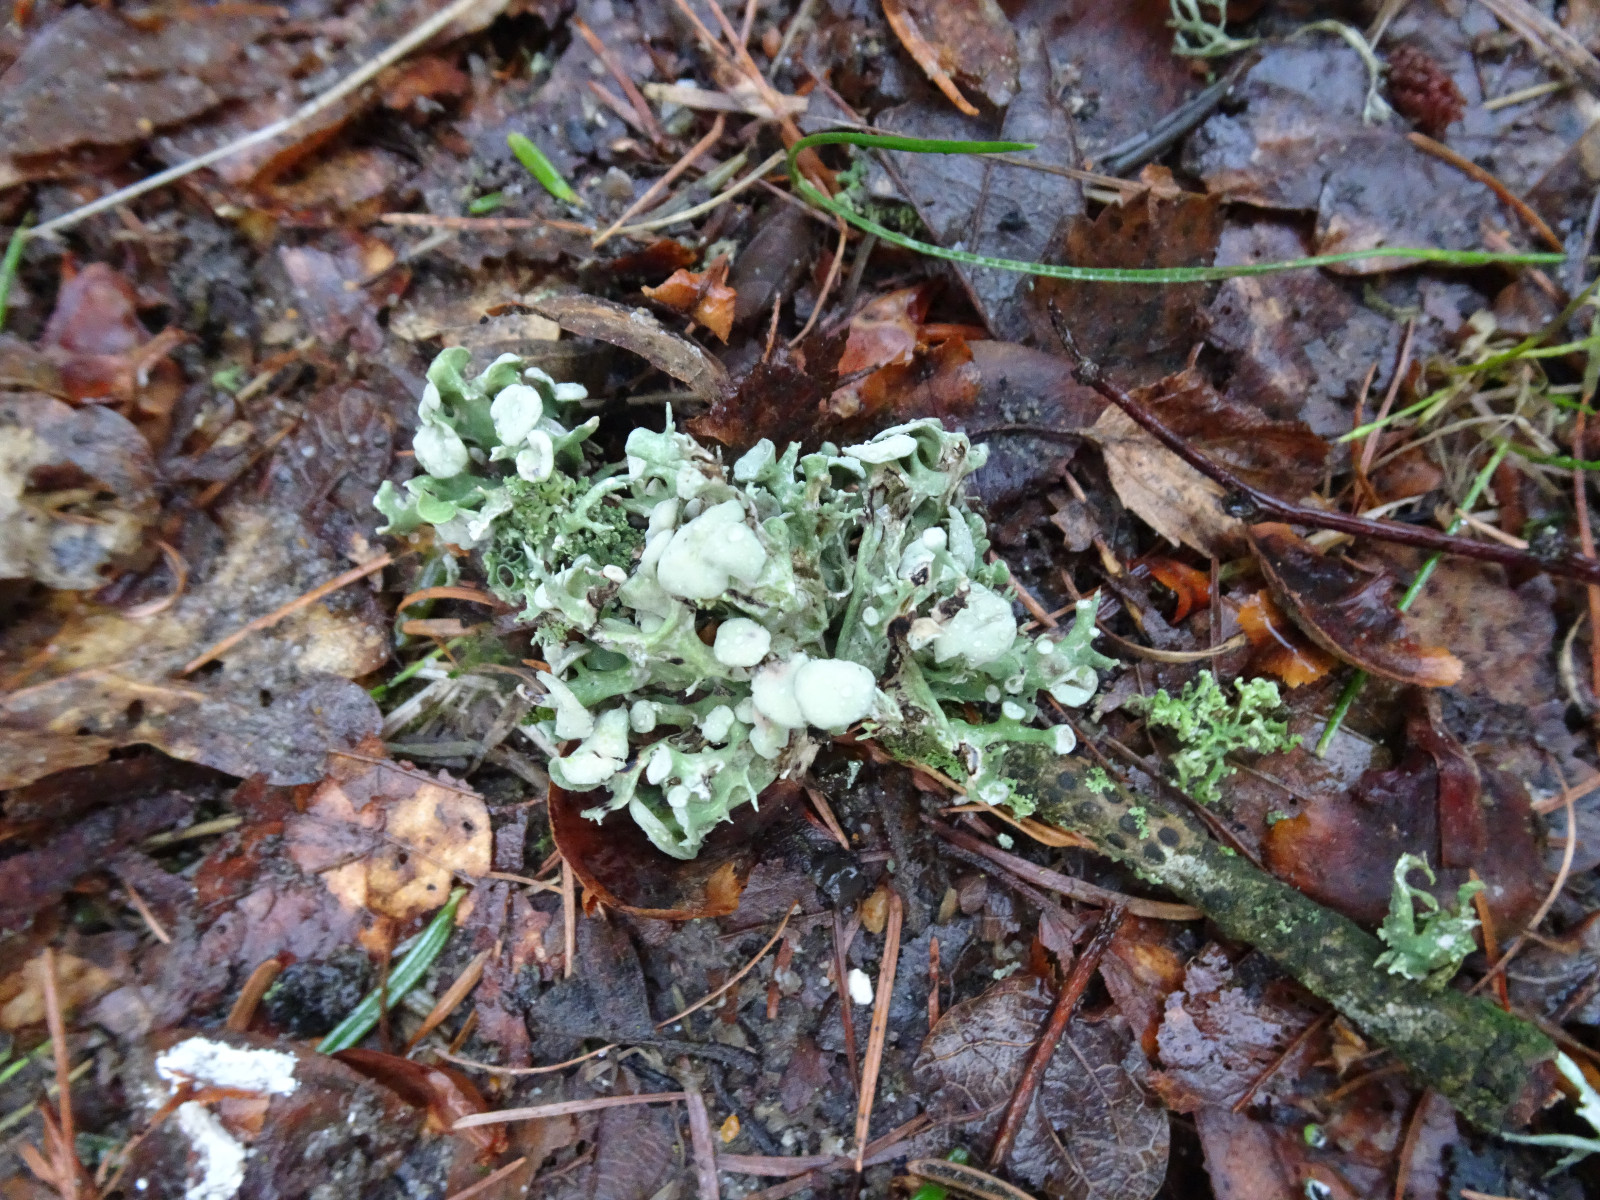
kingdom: Fungi
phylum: Ascomycota
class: Lecanoromycetes
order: Lecanorales
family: Ramalinaceae
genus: Ramalina
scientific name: Ramalina fastigiata
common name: tue-grenlav
